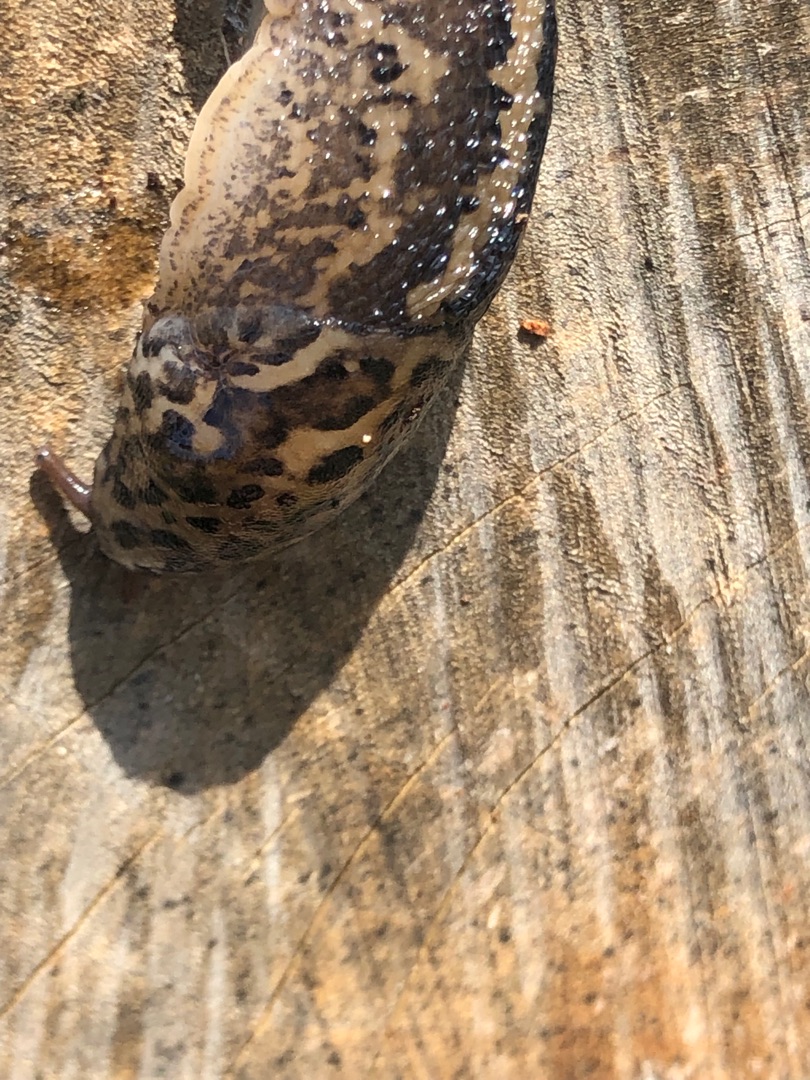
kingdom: Animalia
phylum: Mollusca
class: Gastropoda
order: Stylommatophora
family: Limacidae
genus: Limax
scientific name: Limax maximus
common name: Pantersnegl
